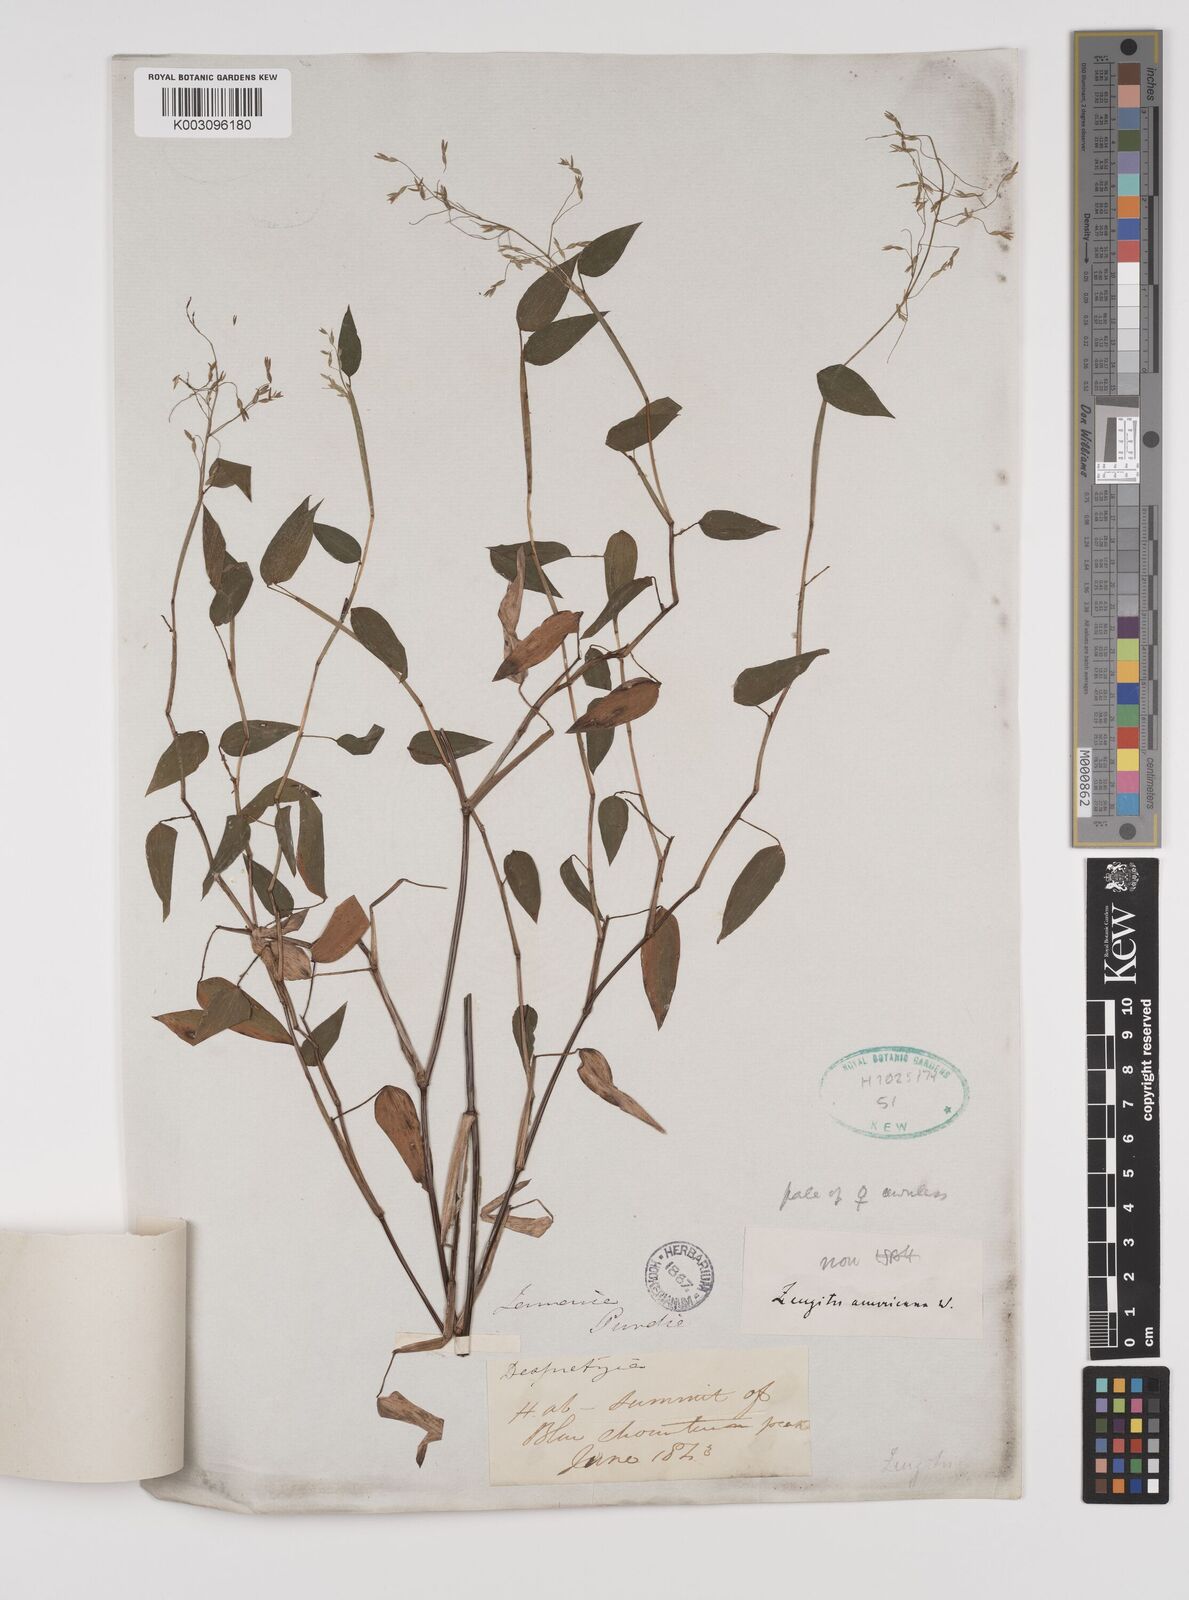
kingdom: Plantae
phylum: Tracheophyta
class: Liliopsida
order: Poales
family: Poaceae
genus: Zeugites
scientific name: Zeugites americanus
